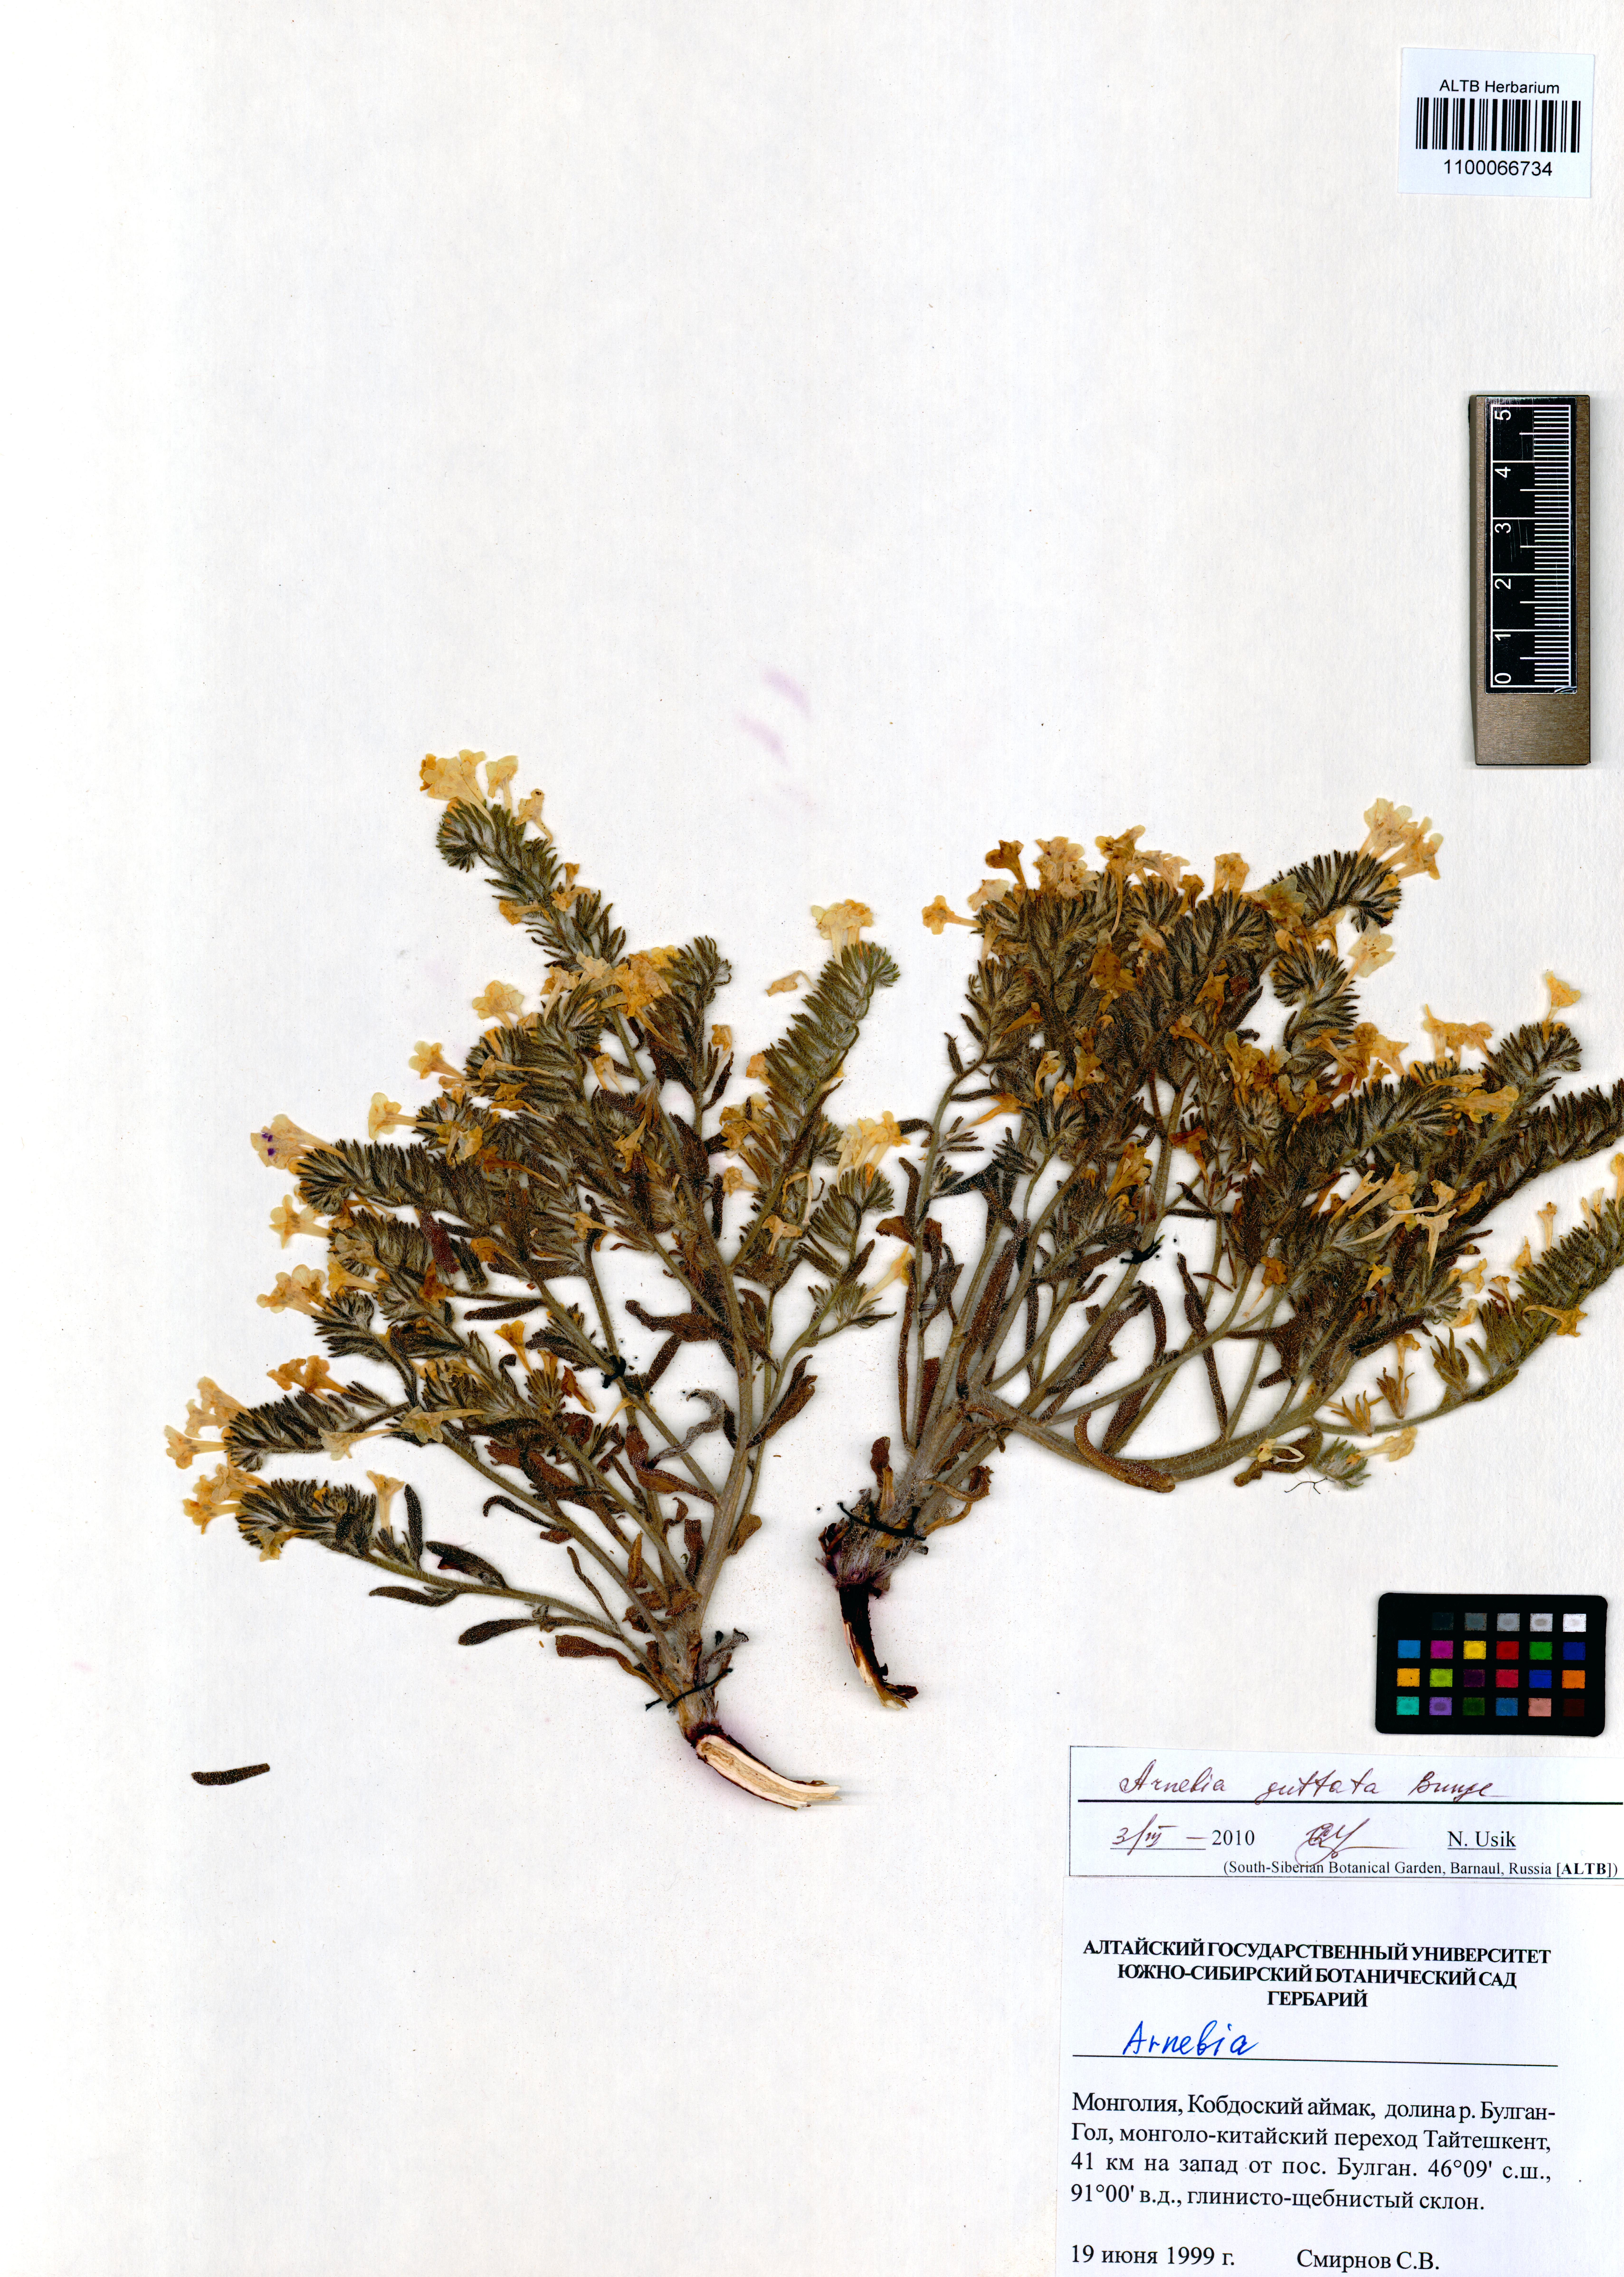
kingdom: Plantae
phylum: Tracheophyta
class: Magnoliopsida
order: Boraginales
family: Boraginaceae
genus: Arnebia
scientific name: Arnebia guttata
